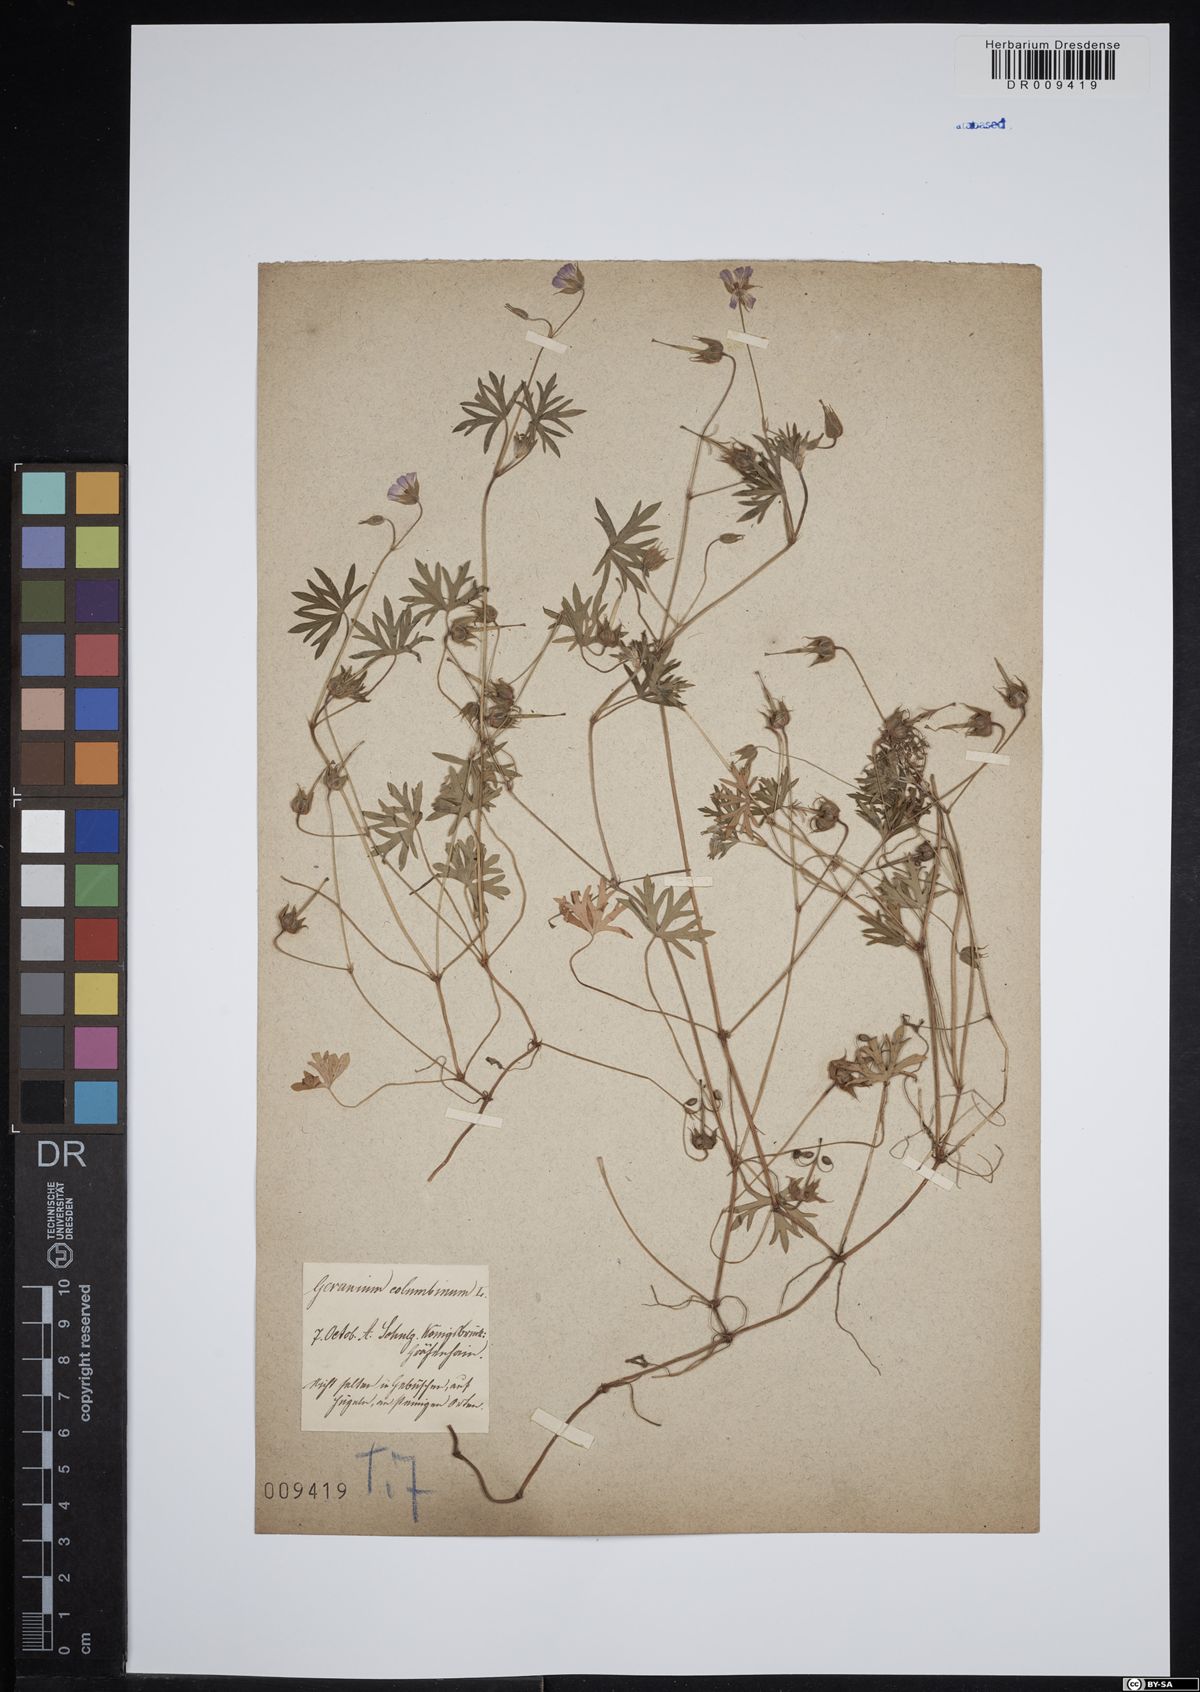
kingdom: Plantae
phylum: Tracheophyta
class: Magnoliopsida
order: Geraniales
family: Geraniaceae
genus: Geranium
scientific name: Geranium columbinum
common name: Long-stalked crane's-bill
